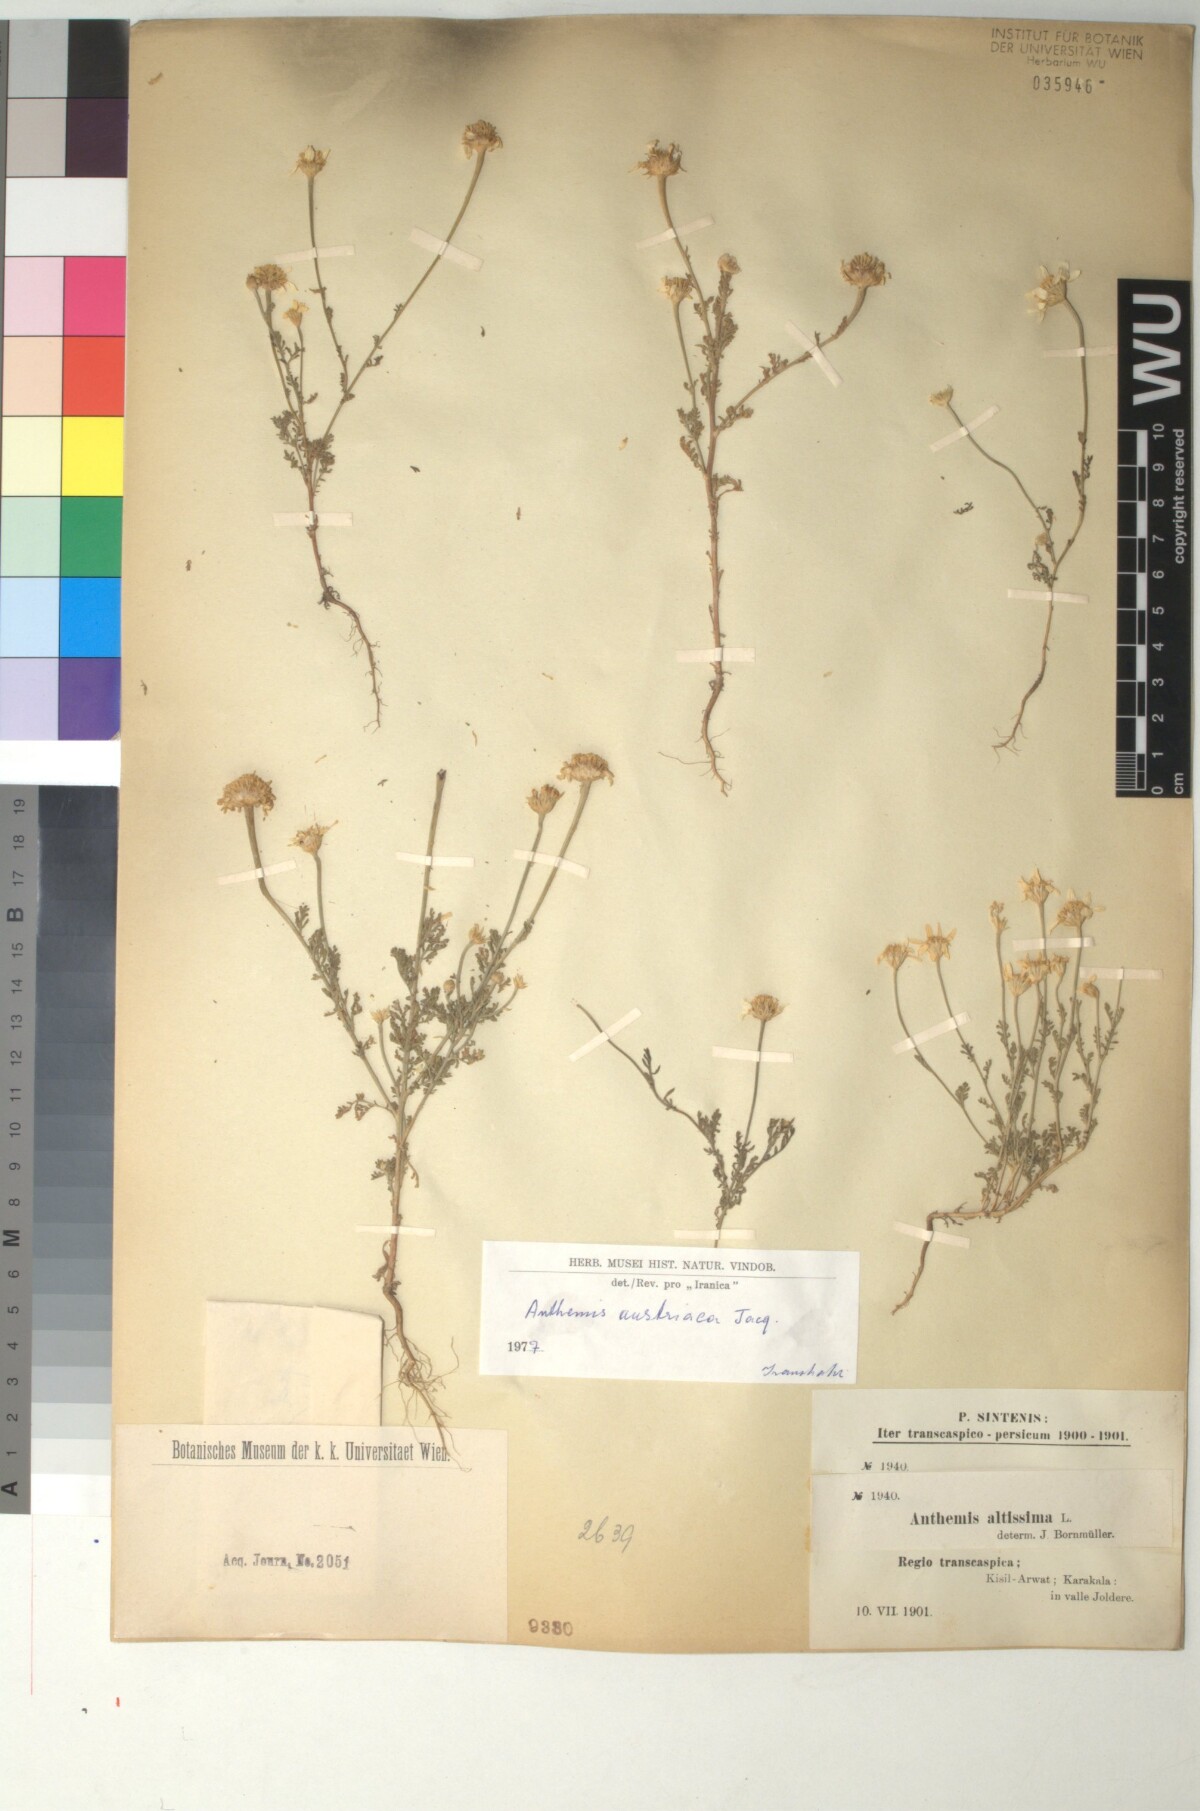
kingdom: Plantae
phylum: Tracheophyta
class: Magnoliopsida
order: Asterales
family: Asteraceae
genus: Cota
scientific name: Cota austriaca
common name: Austrian chamomile
